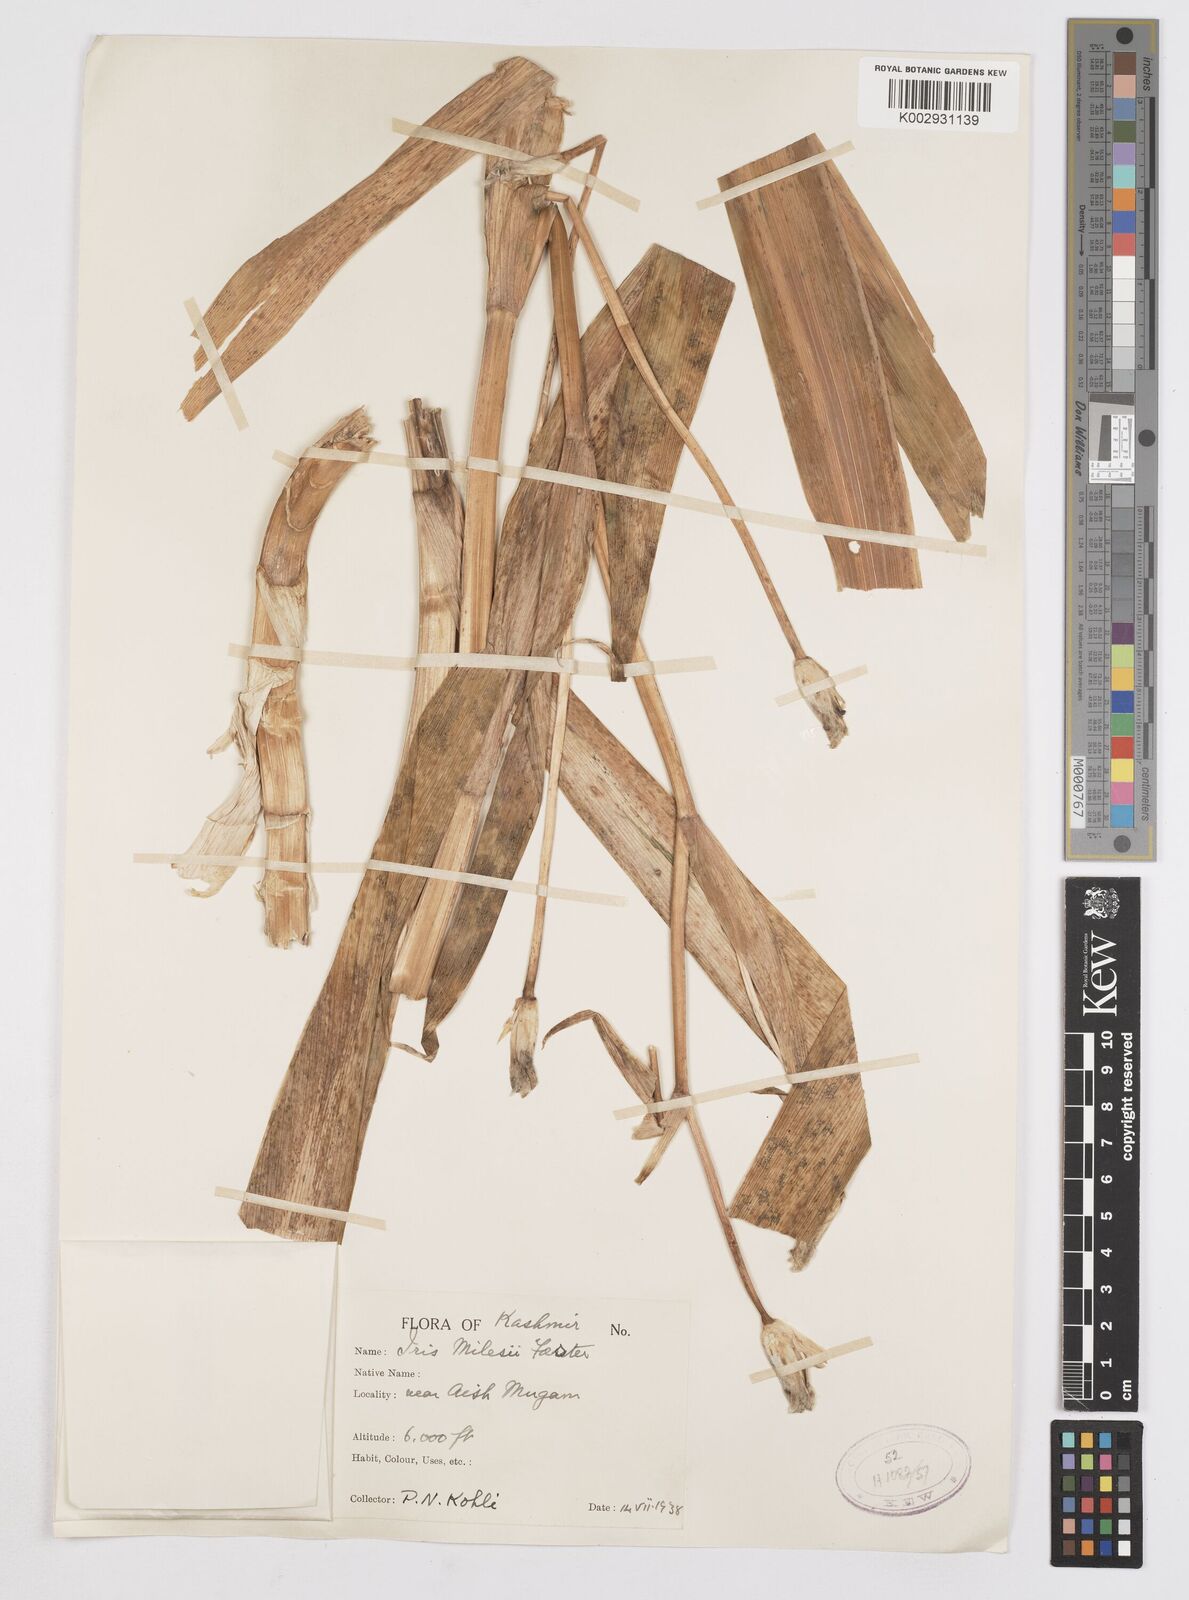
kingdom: Plantae
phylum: Tracheophyta
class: Liliopsida
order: Asparagales
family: Iridaceae
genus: Iris
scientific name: Iris milesii
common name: Red-flower iris
